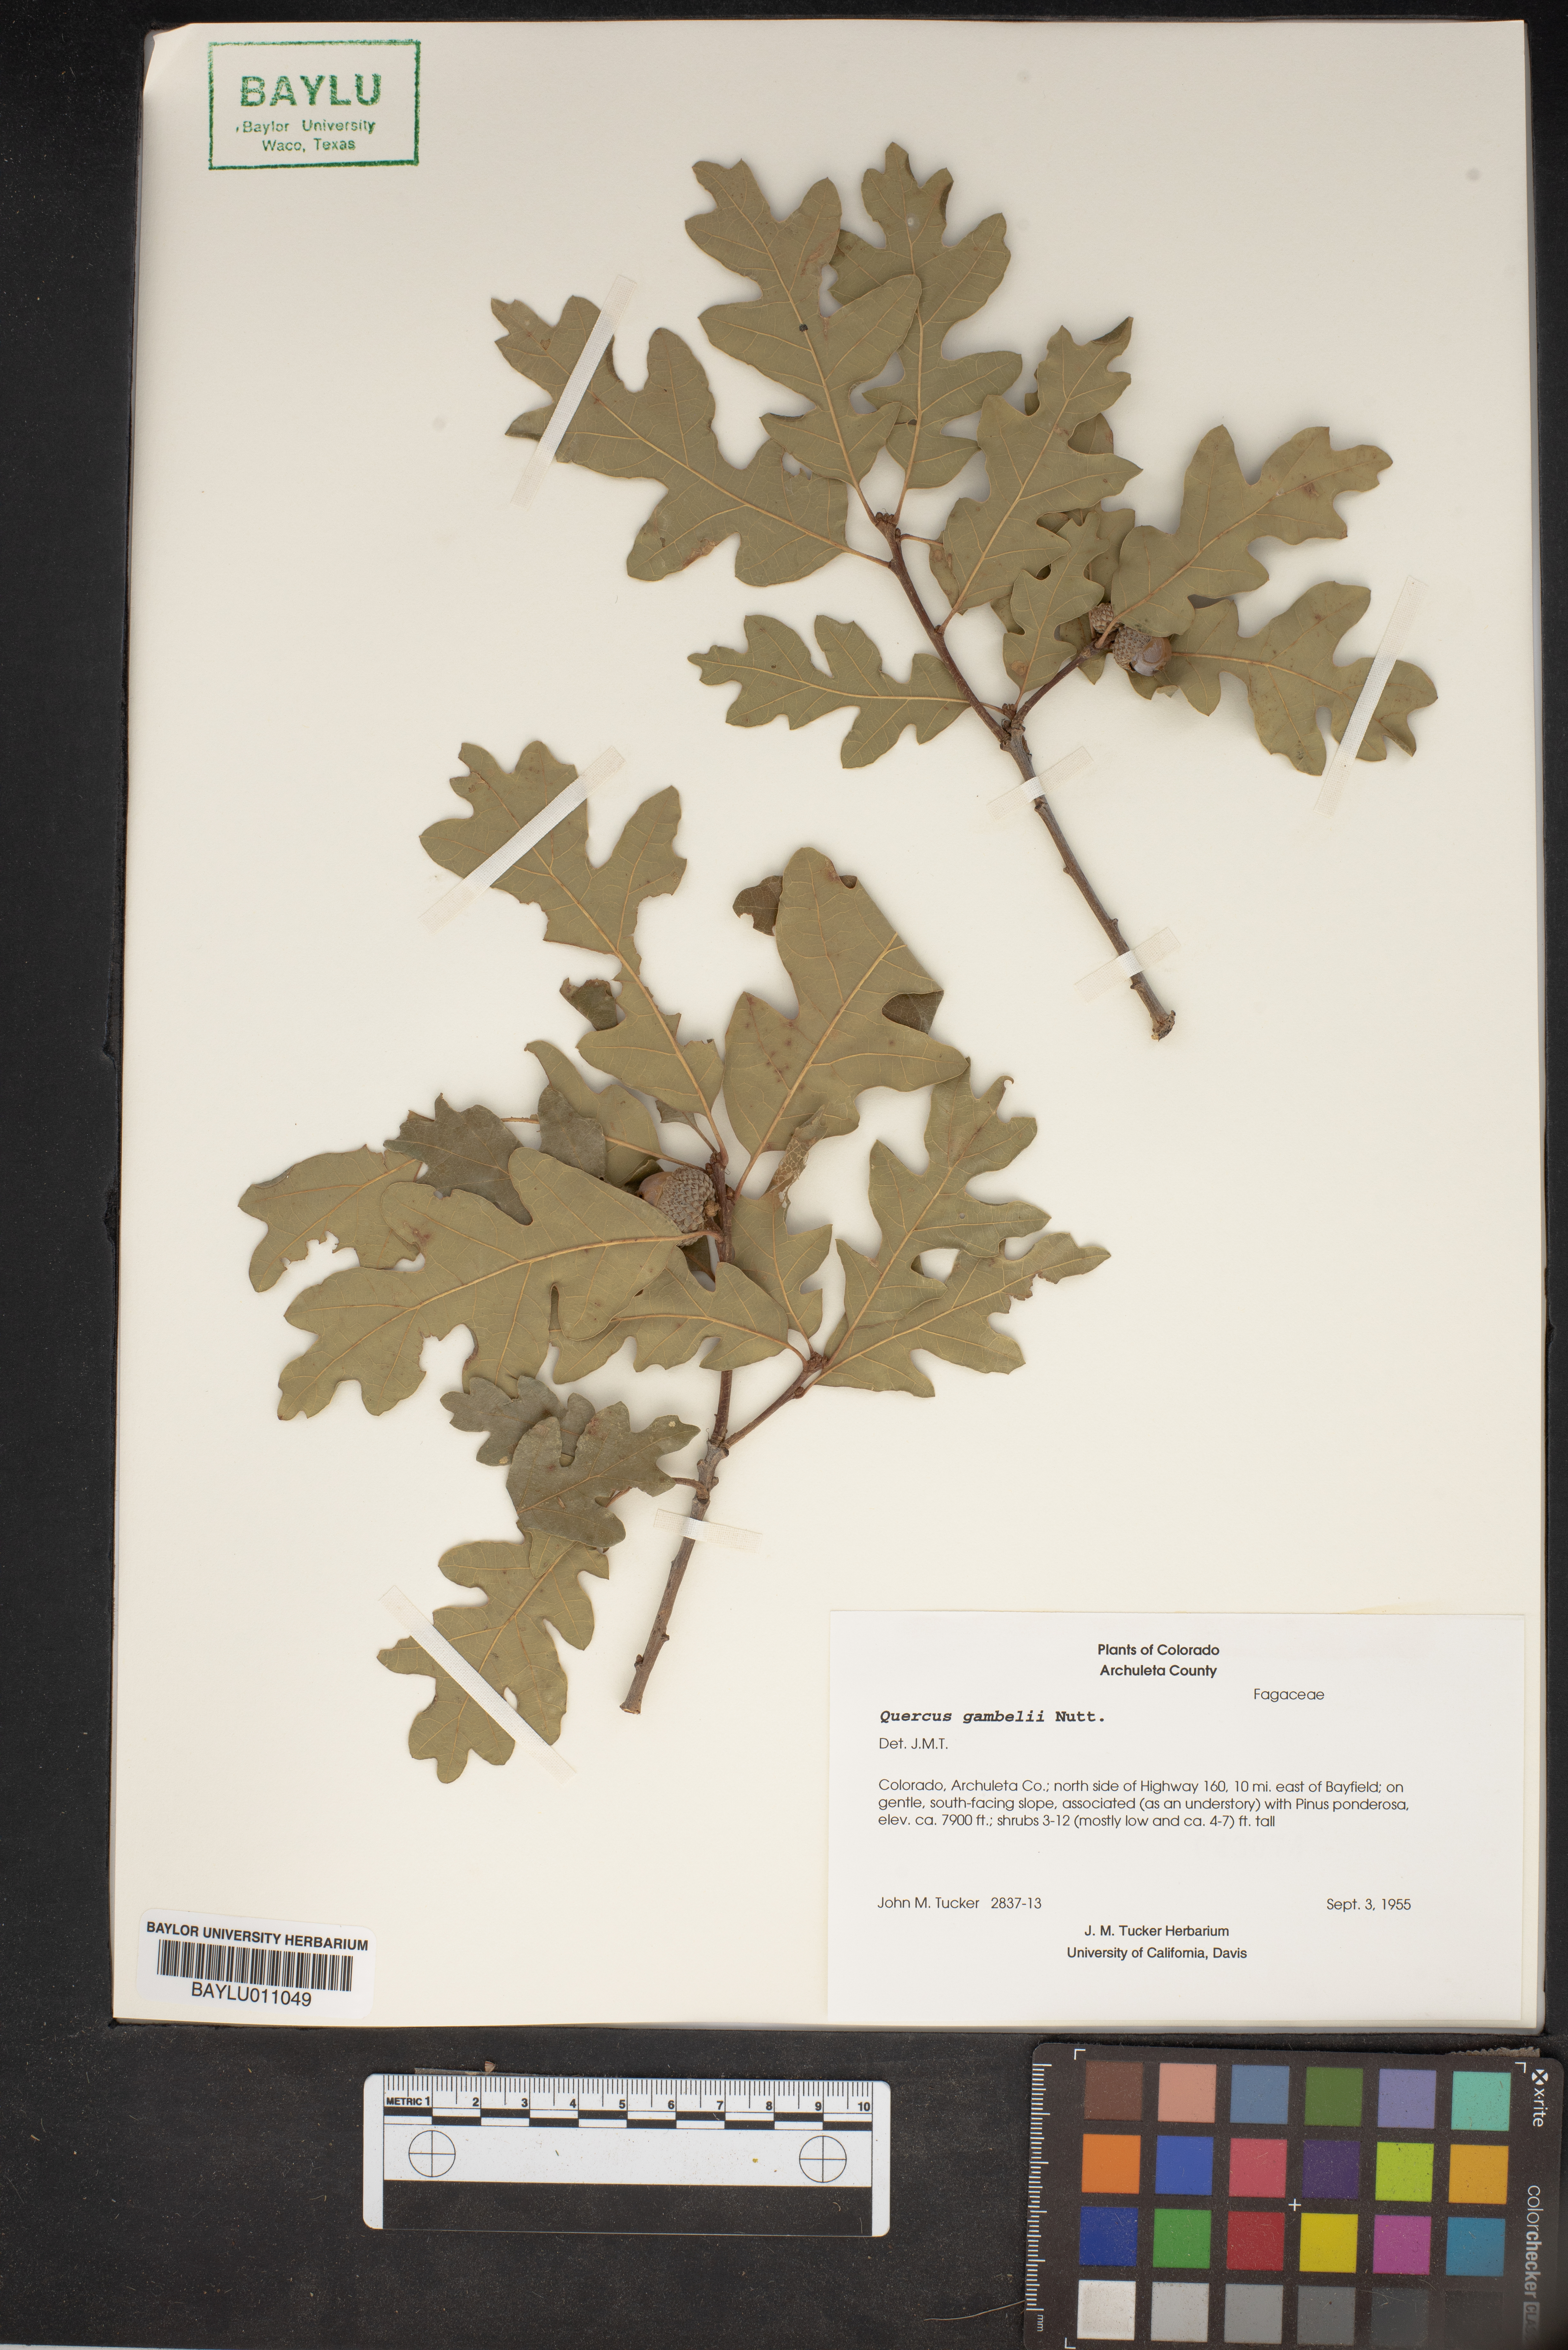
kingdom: Plantae
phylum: Tracheophyta
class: Magnoliopsida
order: Fagales
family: Fagaceae
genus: Quercus
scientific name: Quercus gambelii
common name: Gambel oak
